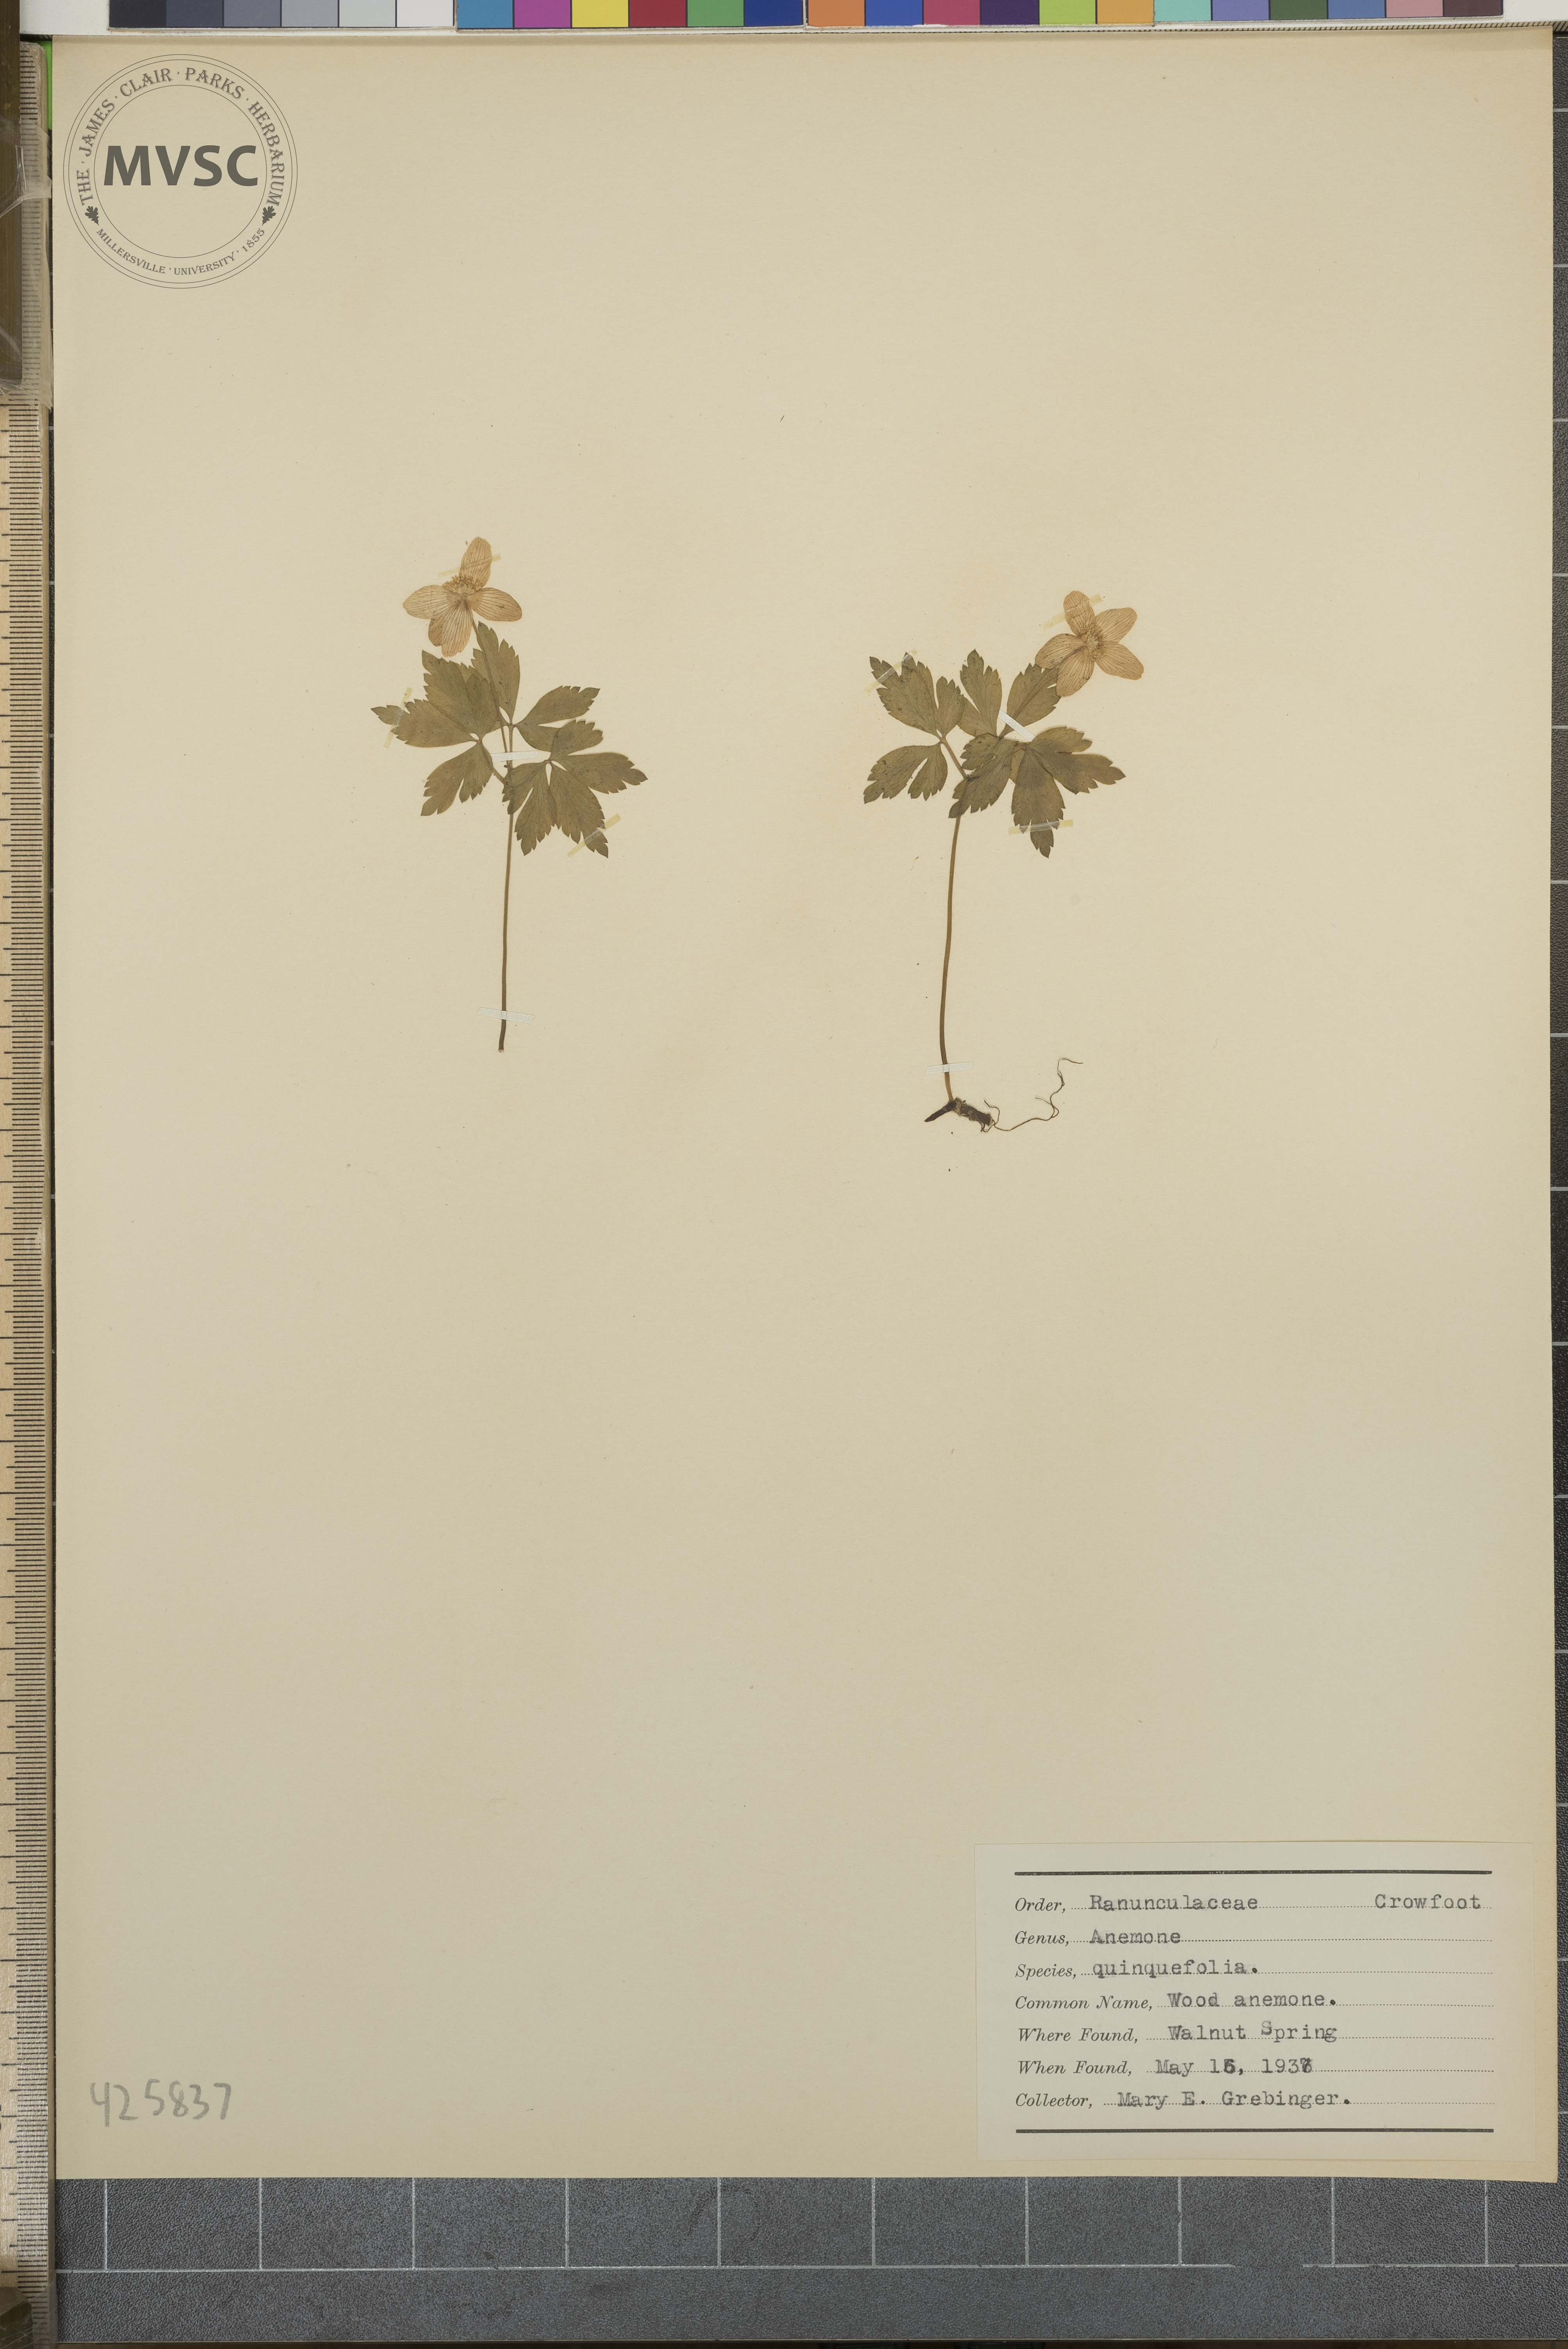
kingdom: Plantae
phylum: Tracheophyta
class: Magnoliopsida
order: Ranunculales
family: Ranunculaceae
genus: Anemone
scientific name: Anemone quinquefolia
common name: Wood anemone
